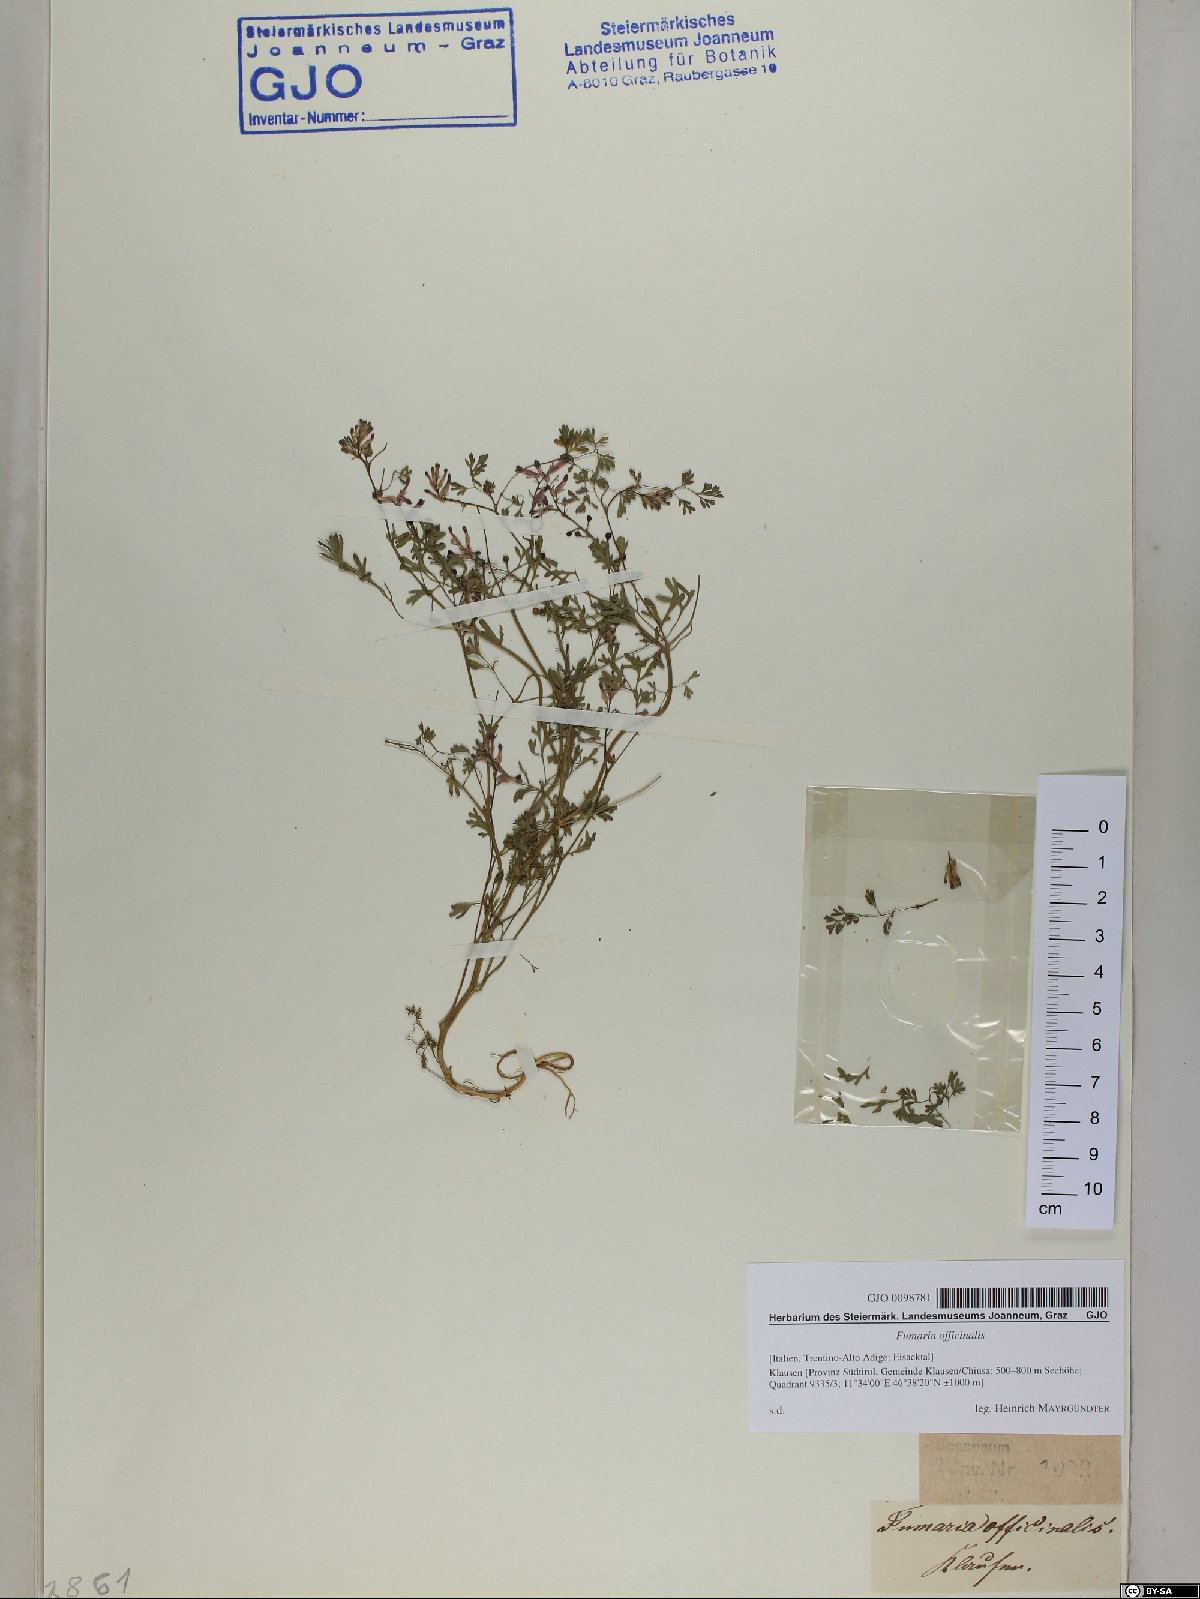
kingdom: Plantae
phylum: Tracheophyta
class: Magnoliopsida
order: Ranunculales
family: Papaveraceae
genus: Fumaria
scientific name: Fumaria officinalis
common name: Common fumitory
